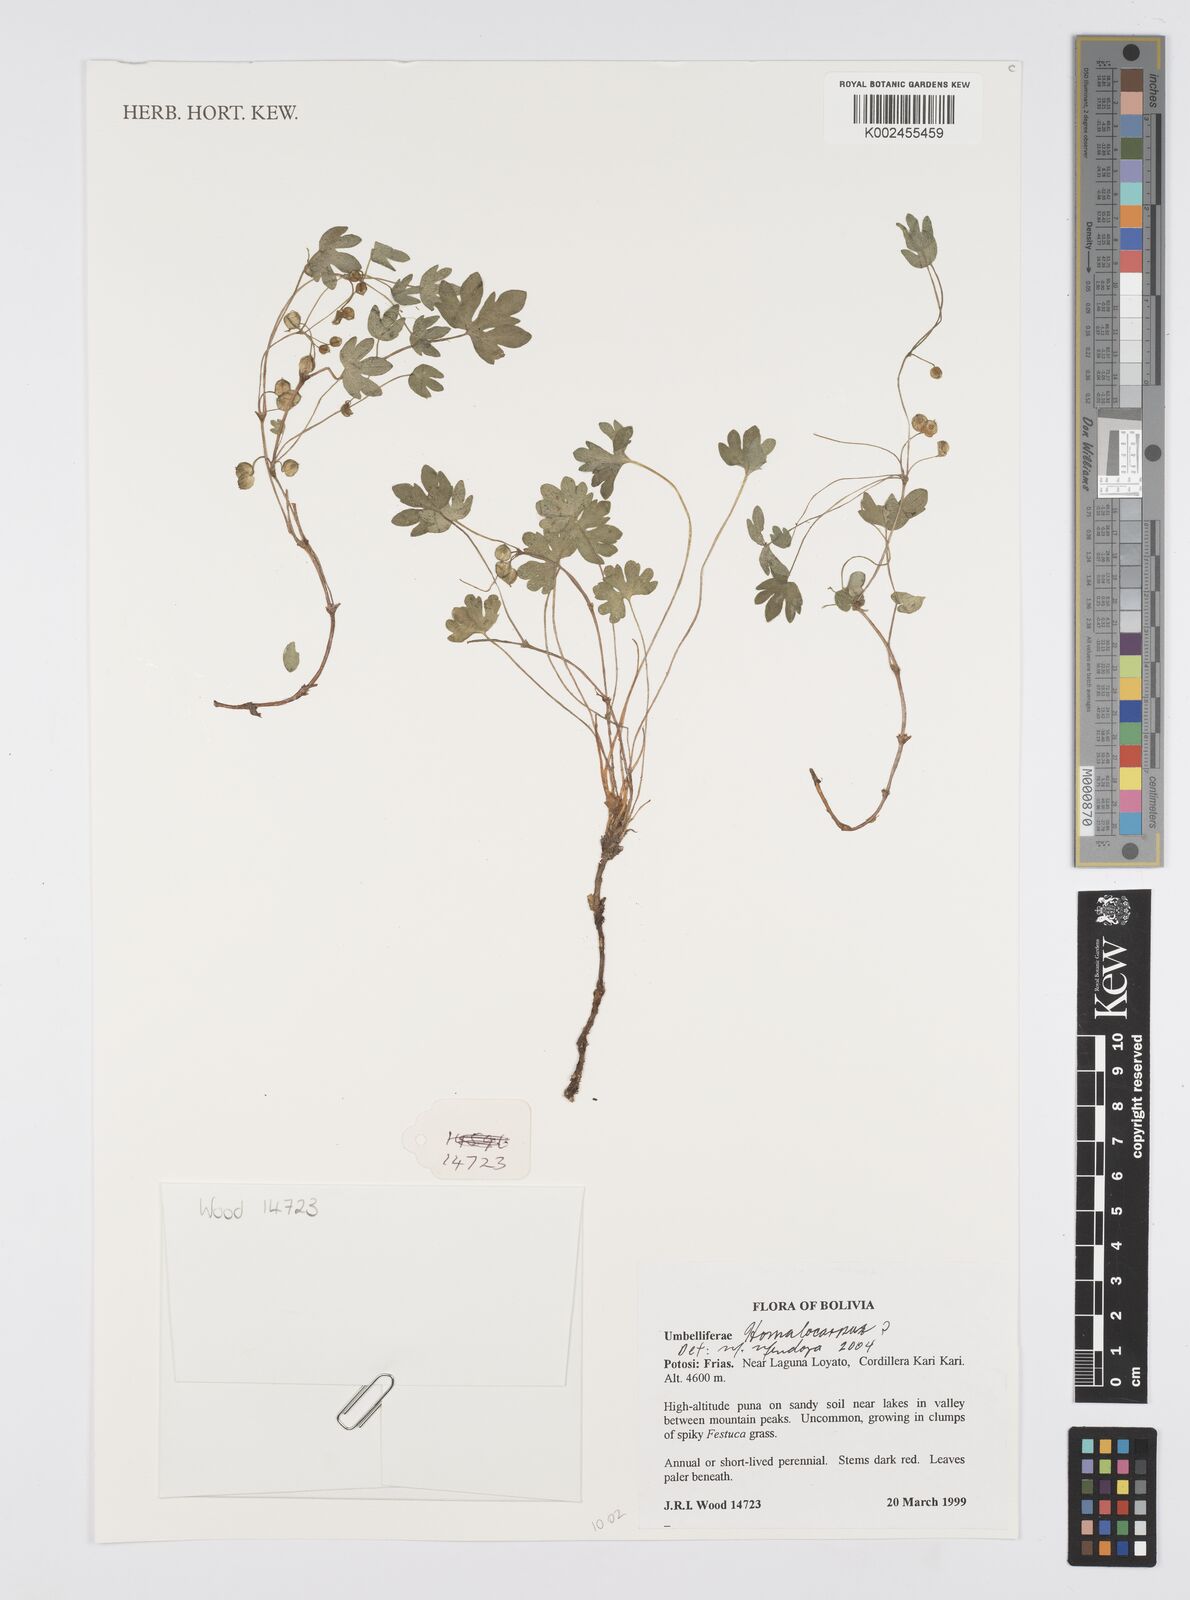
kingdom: Plantae
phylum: Tracheophyta
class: Magnoliopsida
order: Apiales
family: Apiaceae
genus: Homalocarpus
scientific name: Homalocarpus
